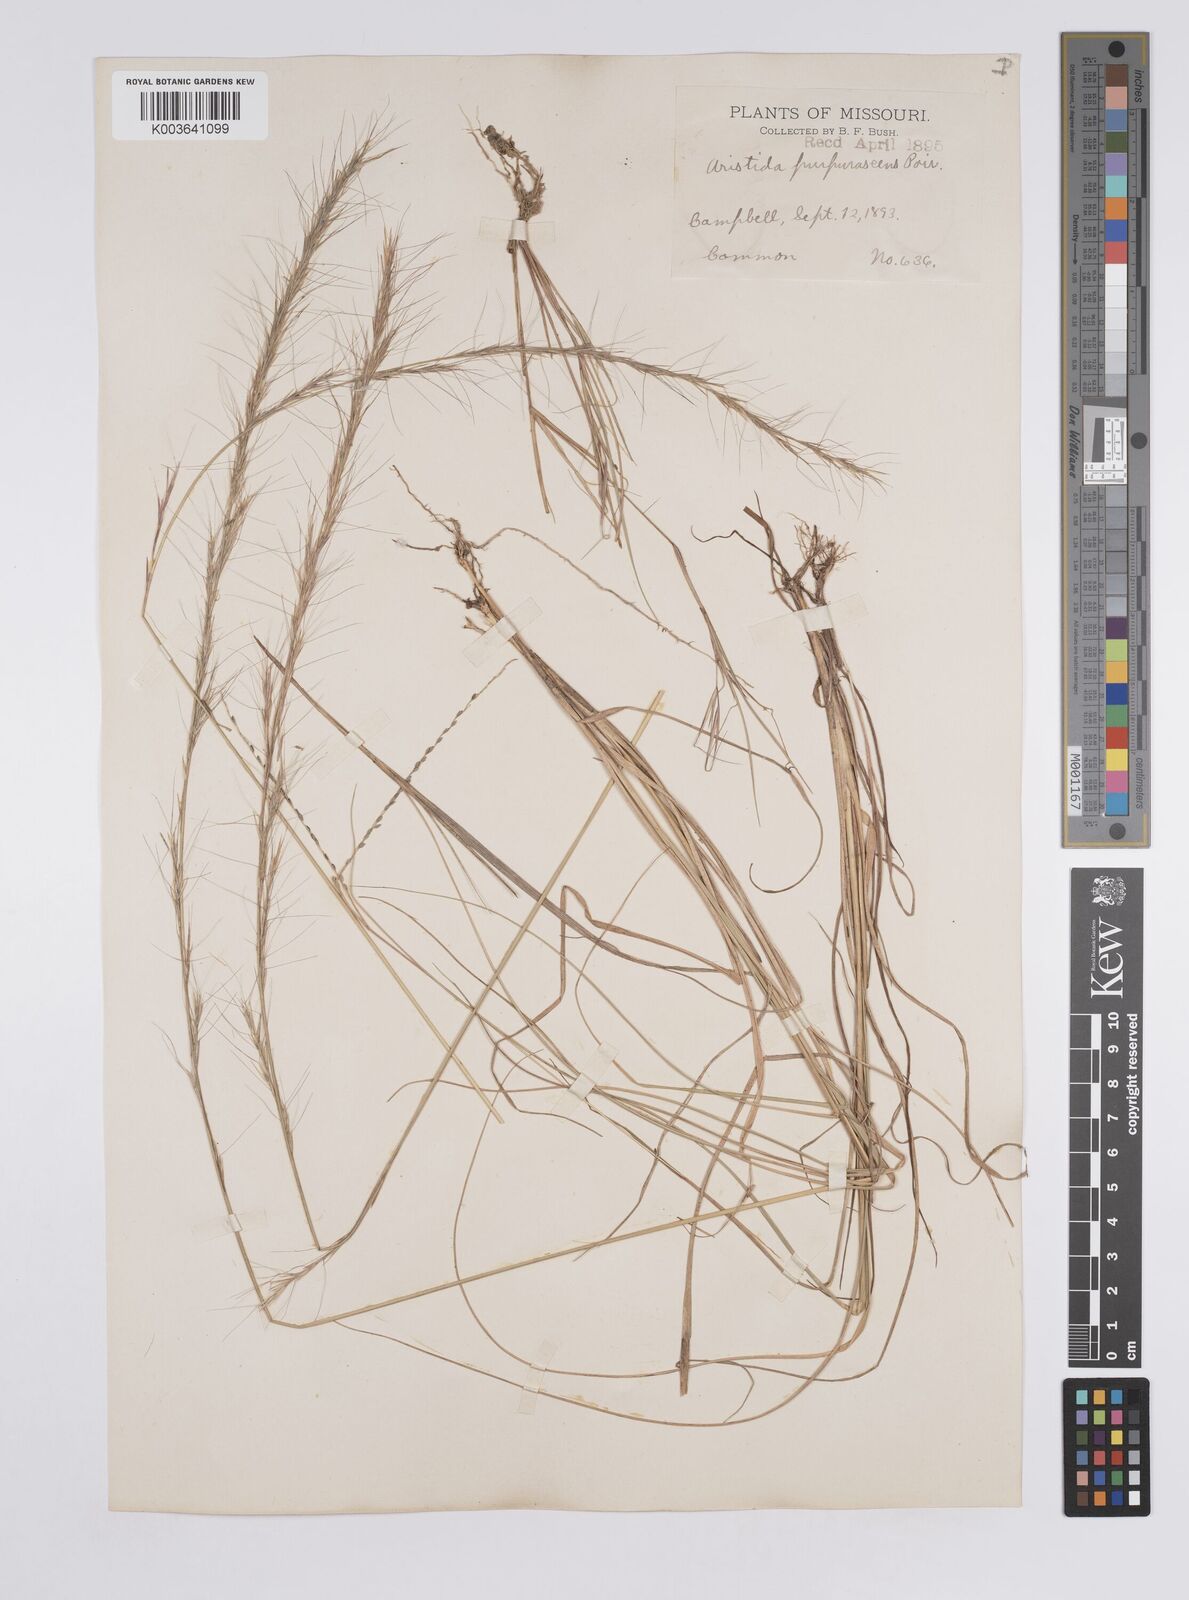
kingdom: Plantae
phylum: Tracheophyta
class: Liliopsida
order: Poales
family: Poaceae
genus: Aristida
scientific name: Aristida purpurascens
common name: Arrow-feather
